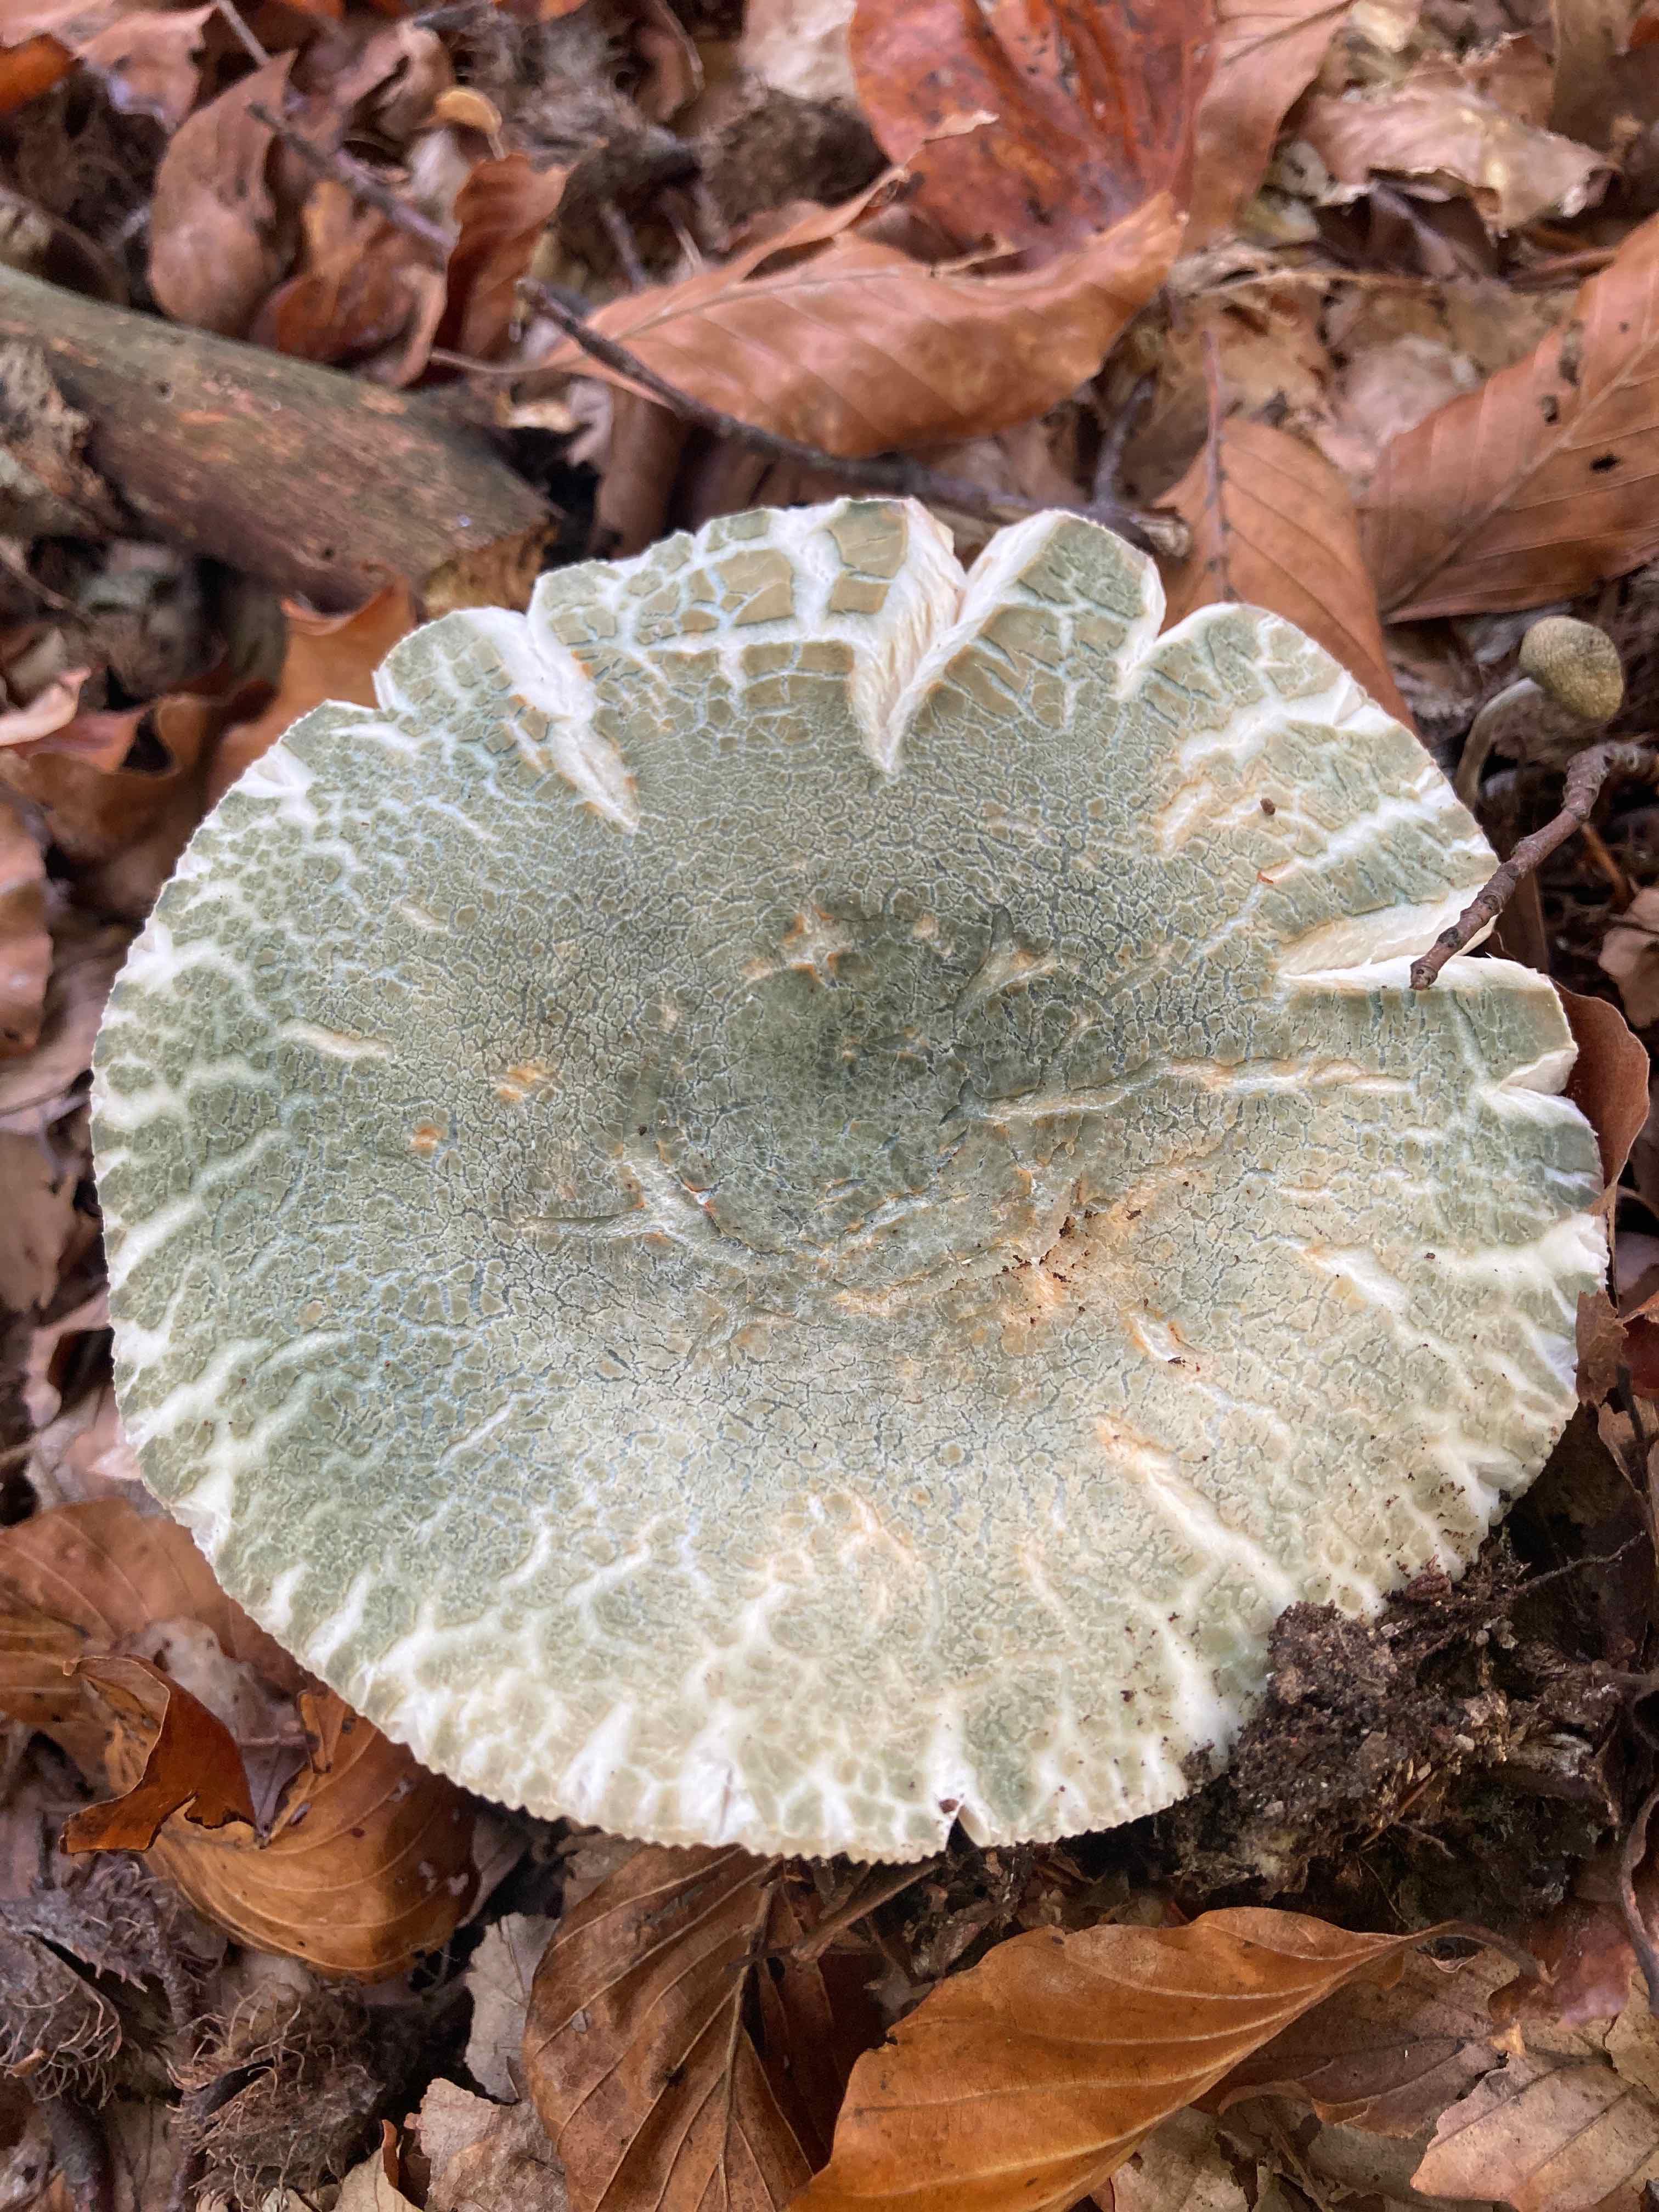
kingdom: Fungi
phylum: Basidiomycota
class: Agaricomycetes
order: Russulales
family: Russulaceae
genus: Russula
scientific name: Russula virescens
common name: spanskgrøn skørhat
